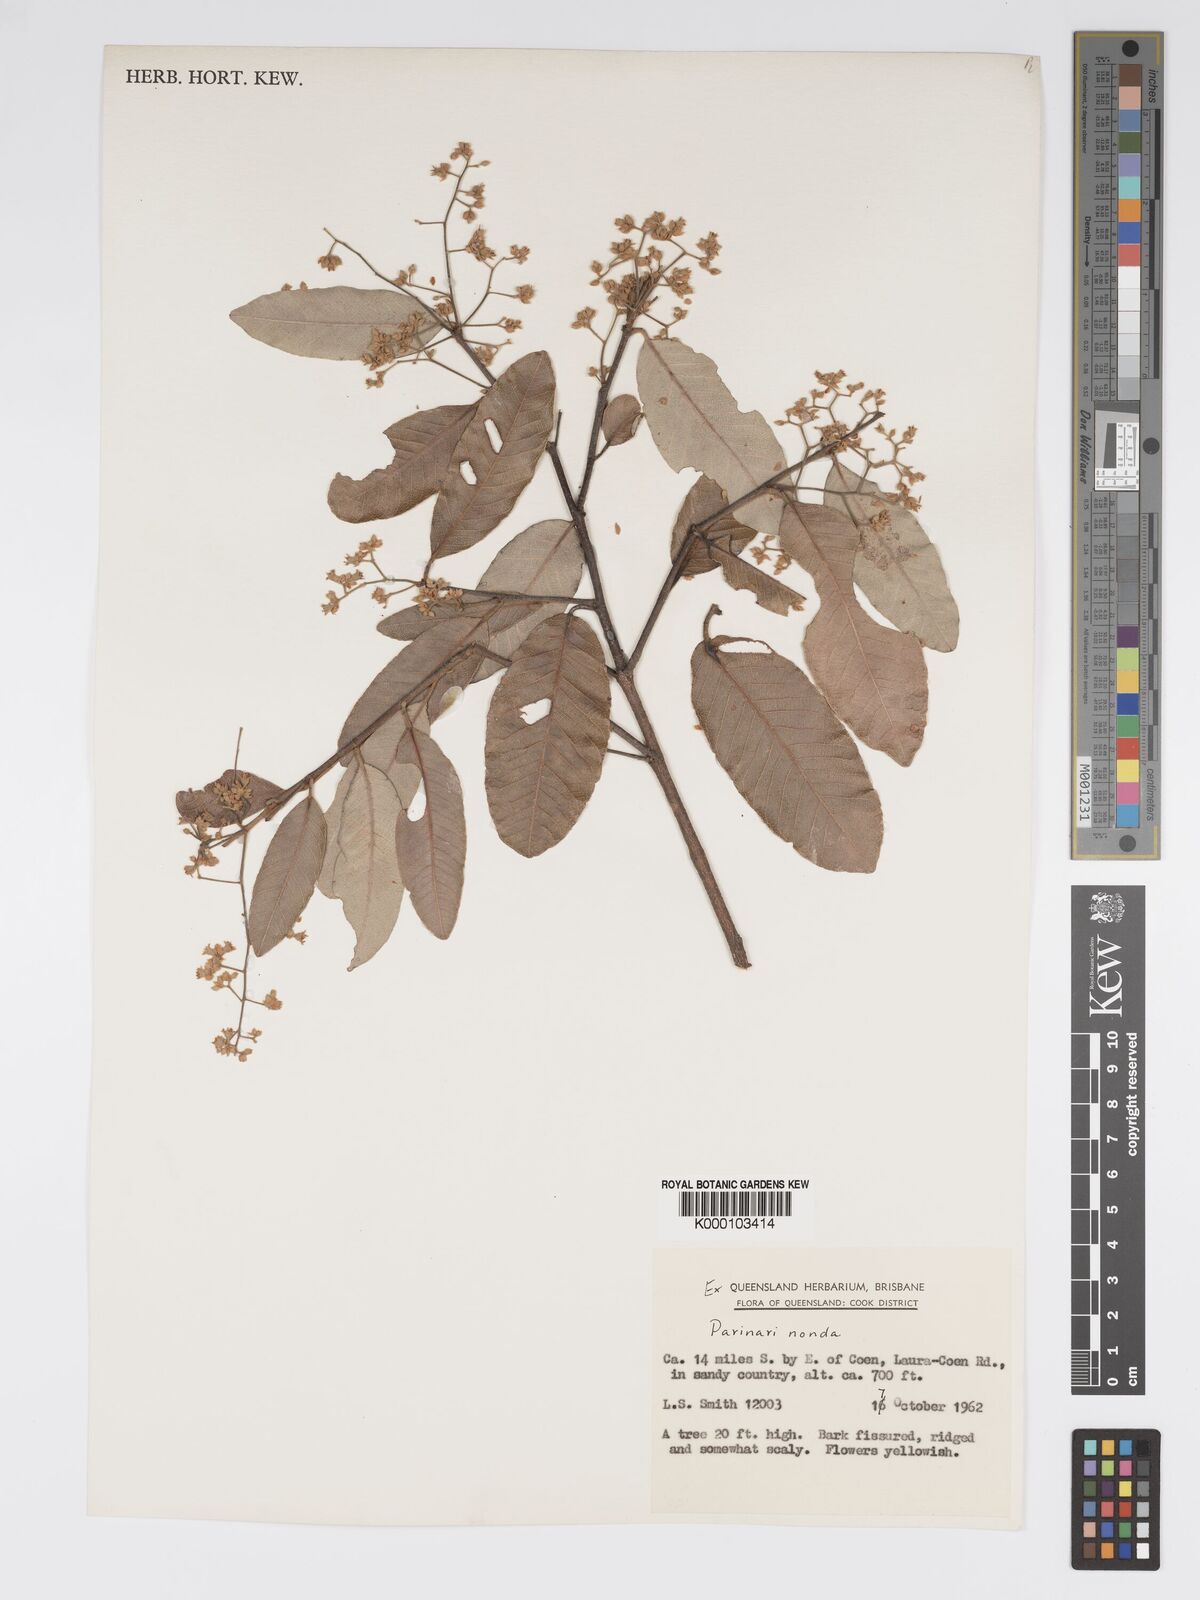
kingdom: Plantae
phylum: Tracheophyta
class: Magnoliopsida
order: Malpighiales
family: Chrysobalanaceae
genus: Parinari
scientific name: Parinari nonda
